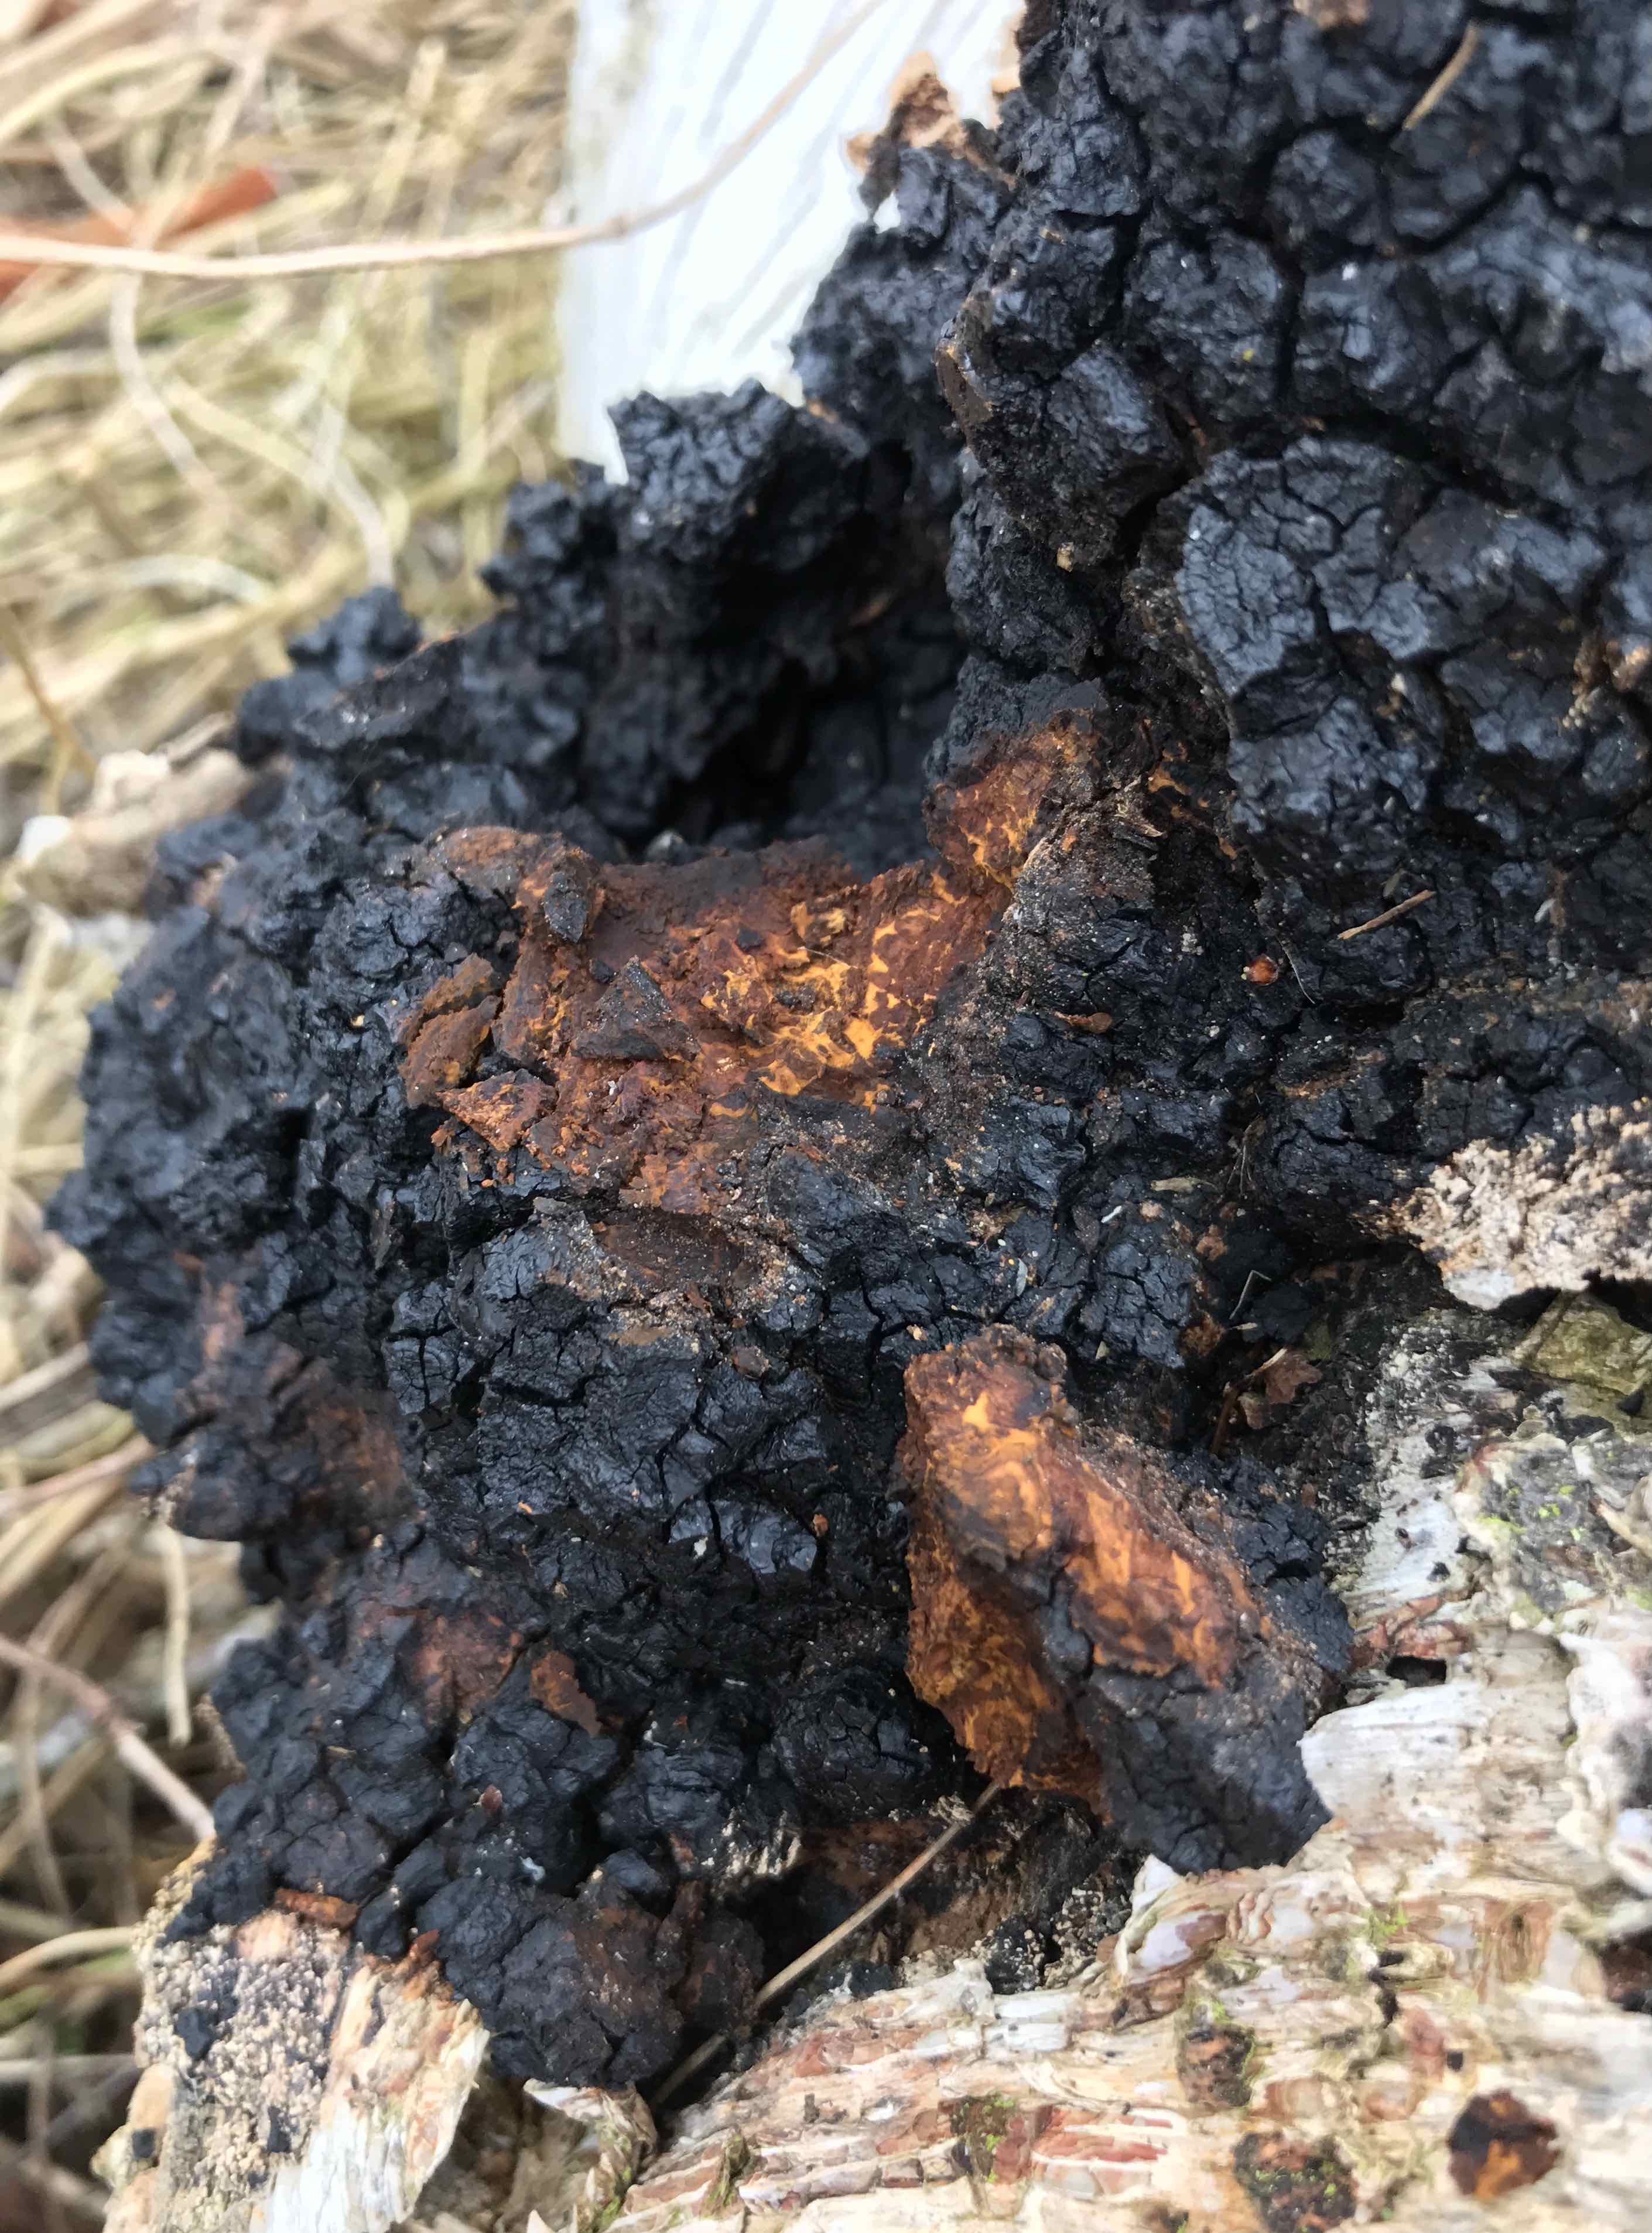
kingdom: Fungi
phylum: Basidiomycota
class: Agaricomycetes
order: Hymenochaetales
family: Hymenochaetaceae
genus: Inonotus
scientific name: Inonotus obliquus
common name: birke-spejlporesvamp
